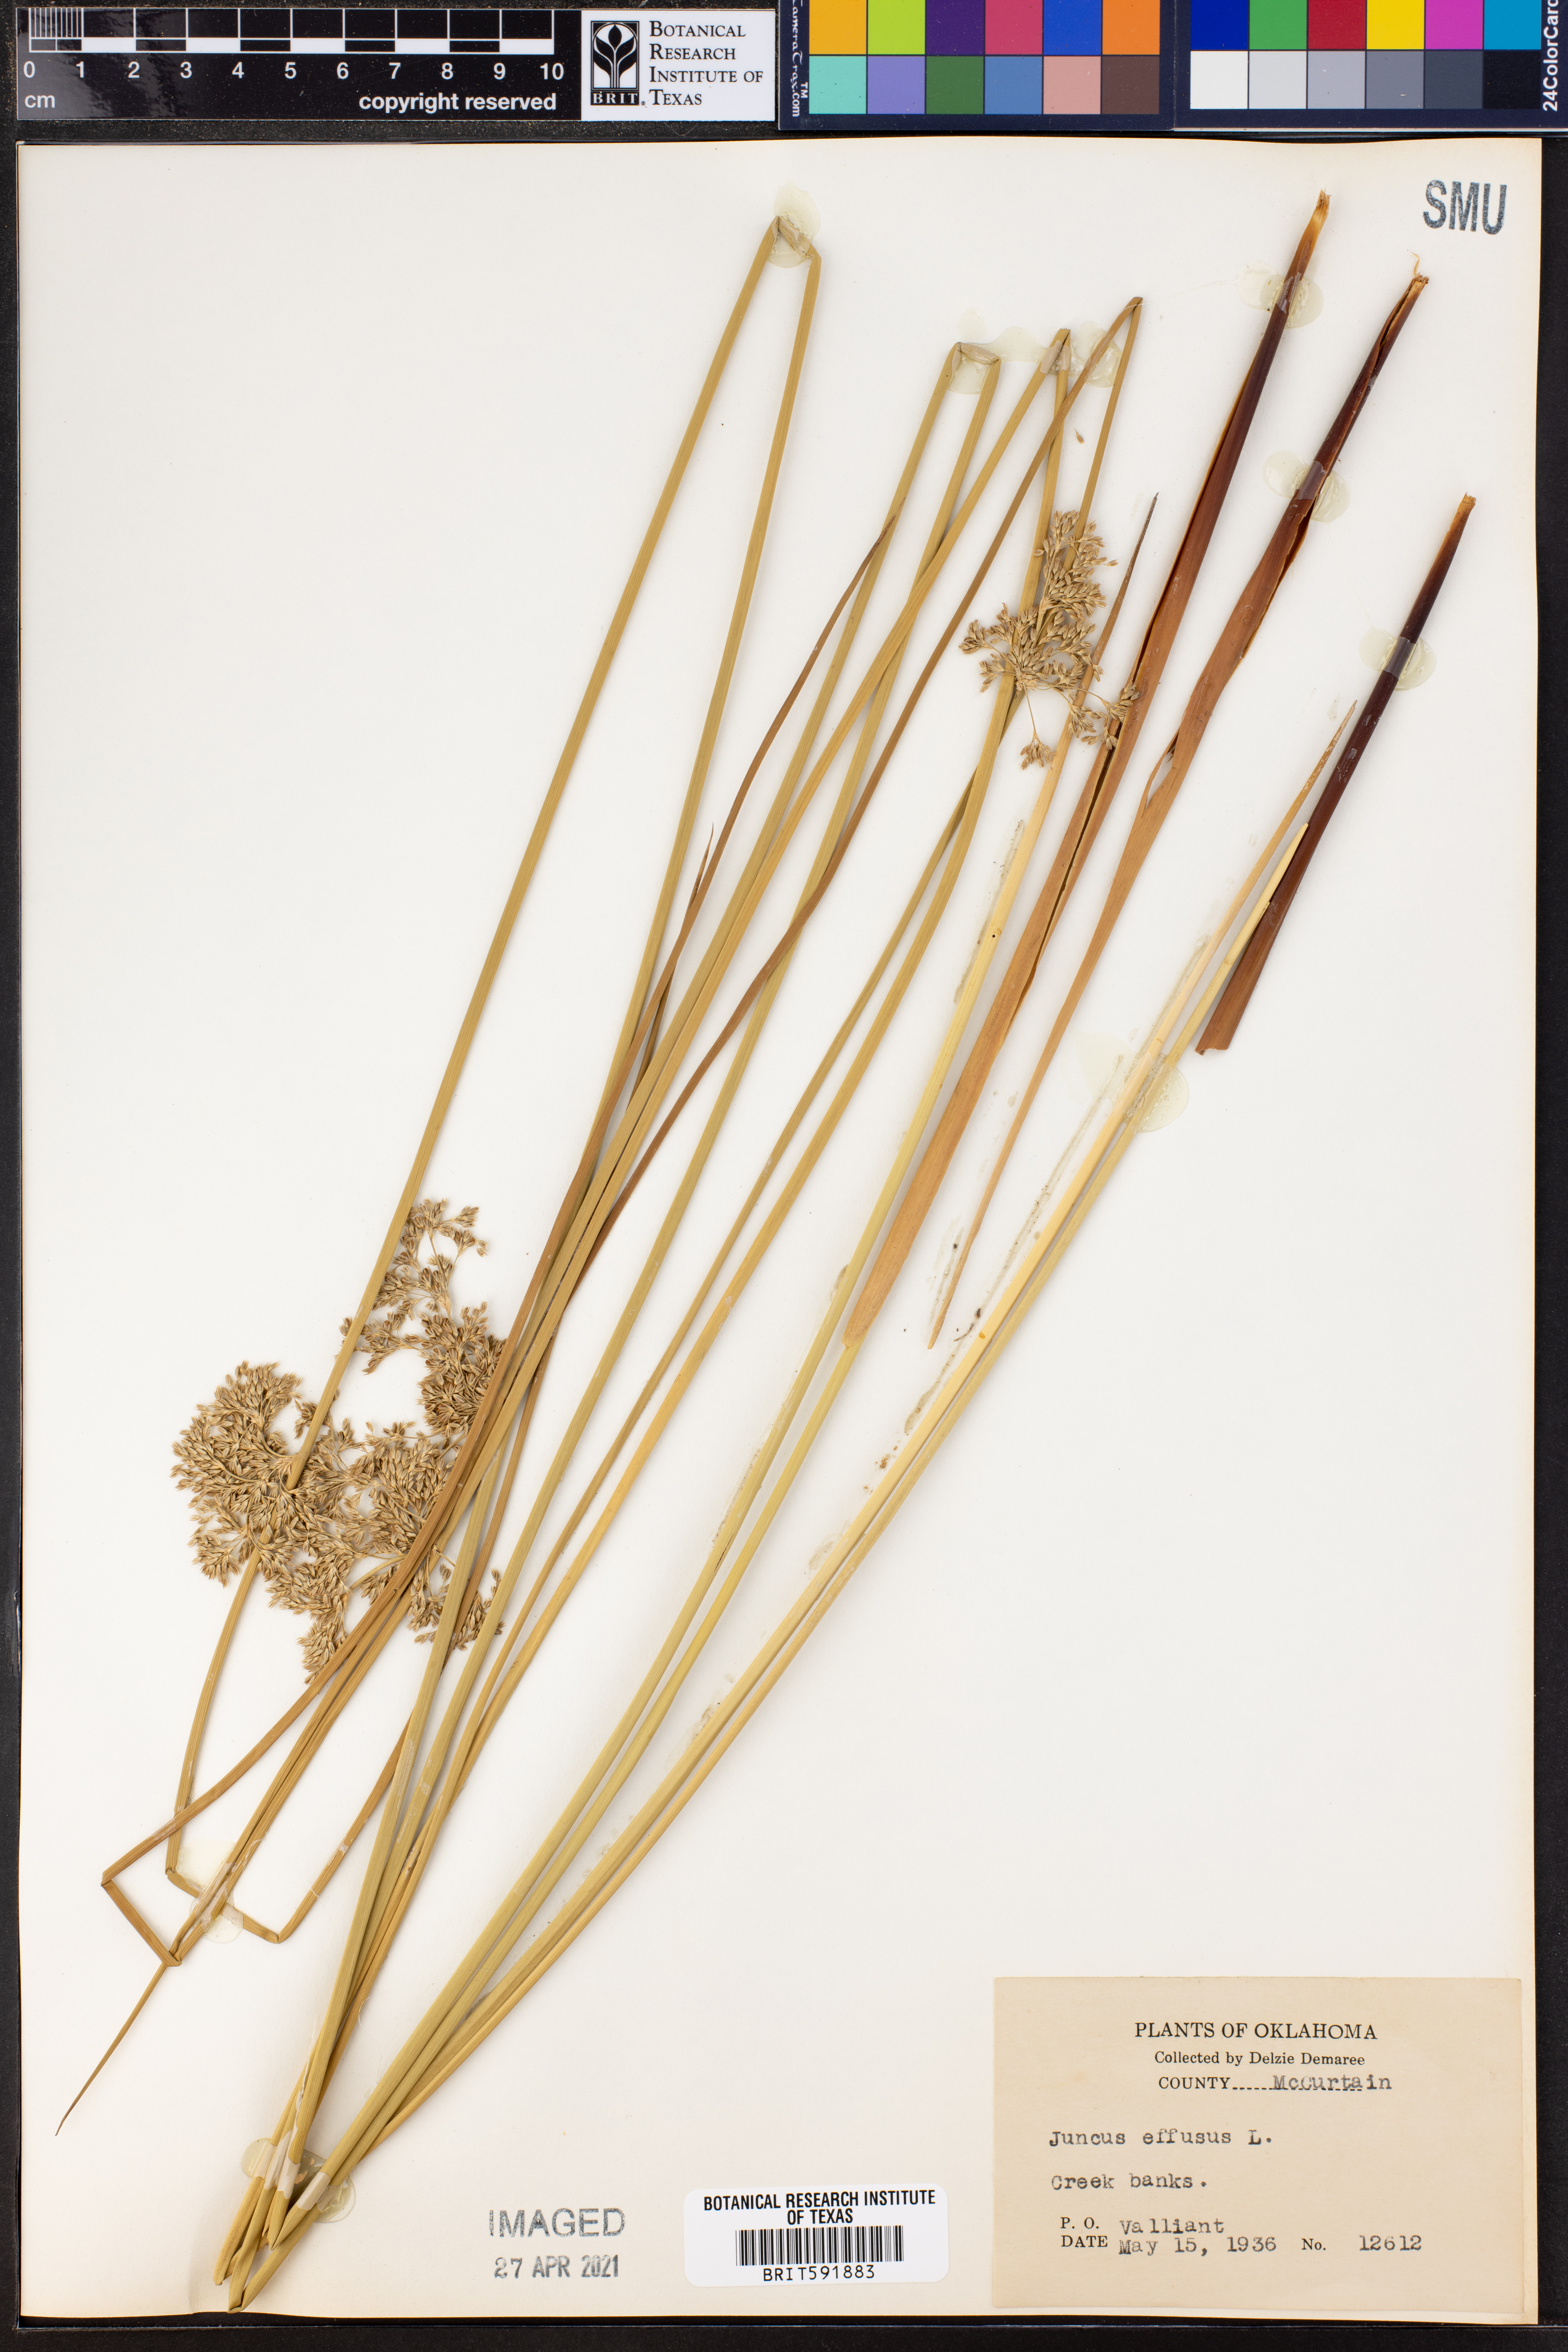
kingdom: Plantae
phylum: Tracheophyta
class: Liliopsida
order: Poales
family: Juncaceae
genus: Juncus
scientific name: Juncus effusus
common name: Soft rush
